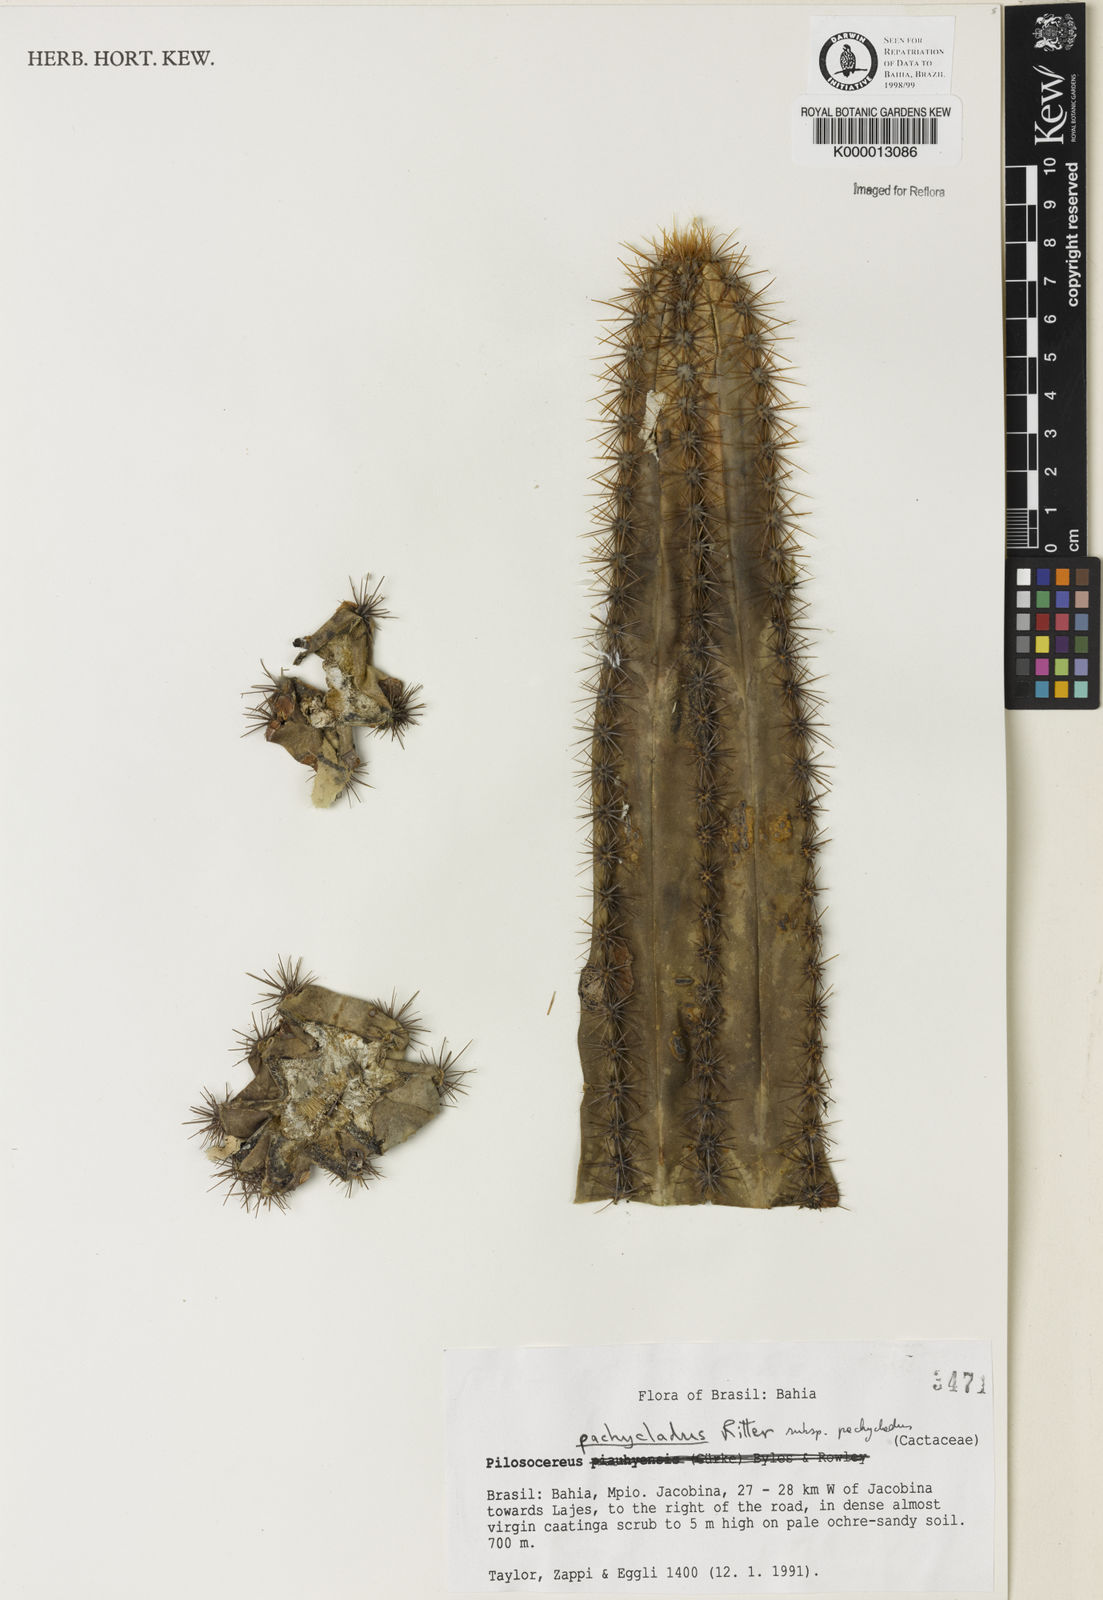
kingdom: Plantae
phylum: Tracheophyta
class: Magnoliopsida
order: Caryophyllales
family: Cactaceae
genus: Pilosocereus
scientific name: Pilosocereus pachycladus
